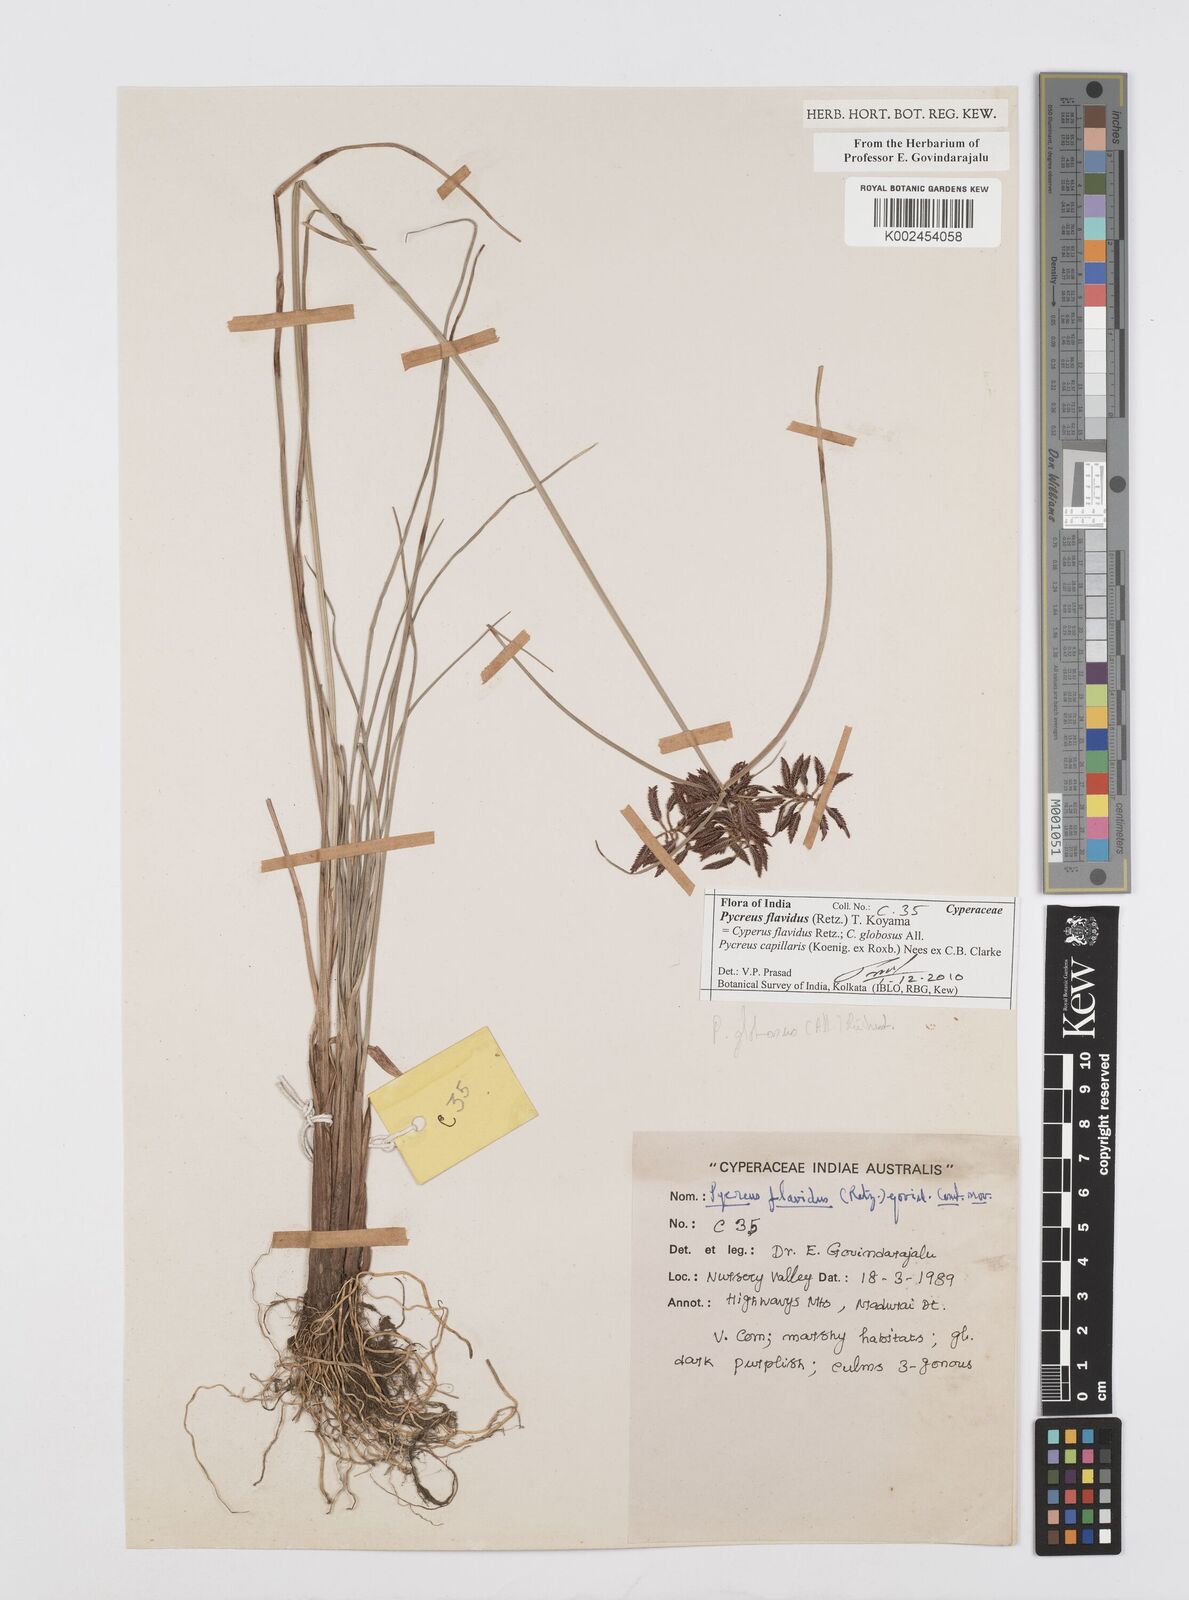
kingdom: Plantae
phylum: Tracheophyta
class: Liliopsida
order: Poales
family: Cyperaceae
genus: Cyperus
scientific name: Cyperus flavidus
